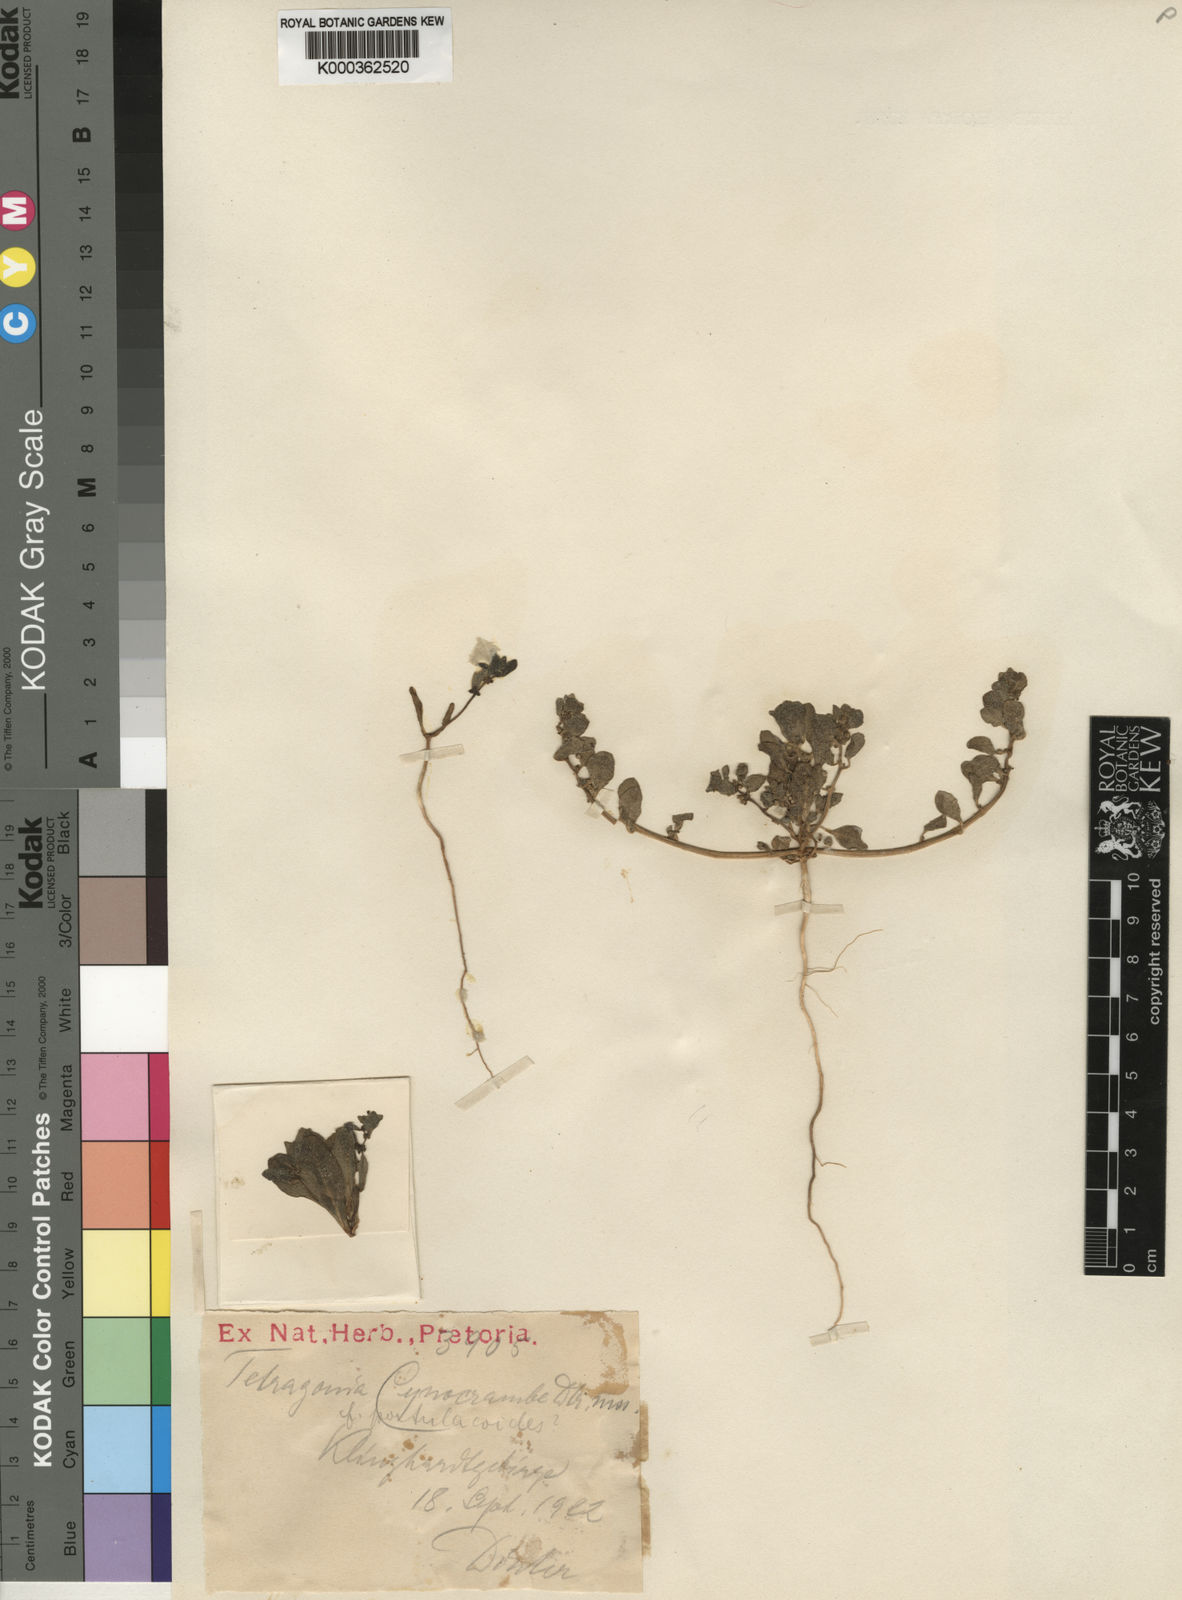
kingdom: Plantae
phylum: Tracheophyta
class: Magnoliopsida
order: Caryophyllales
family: Aizoaceae
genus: Tetragonia
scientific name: Tetragonia
